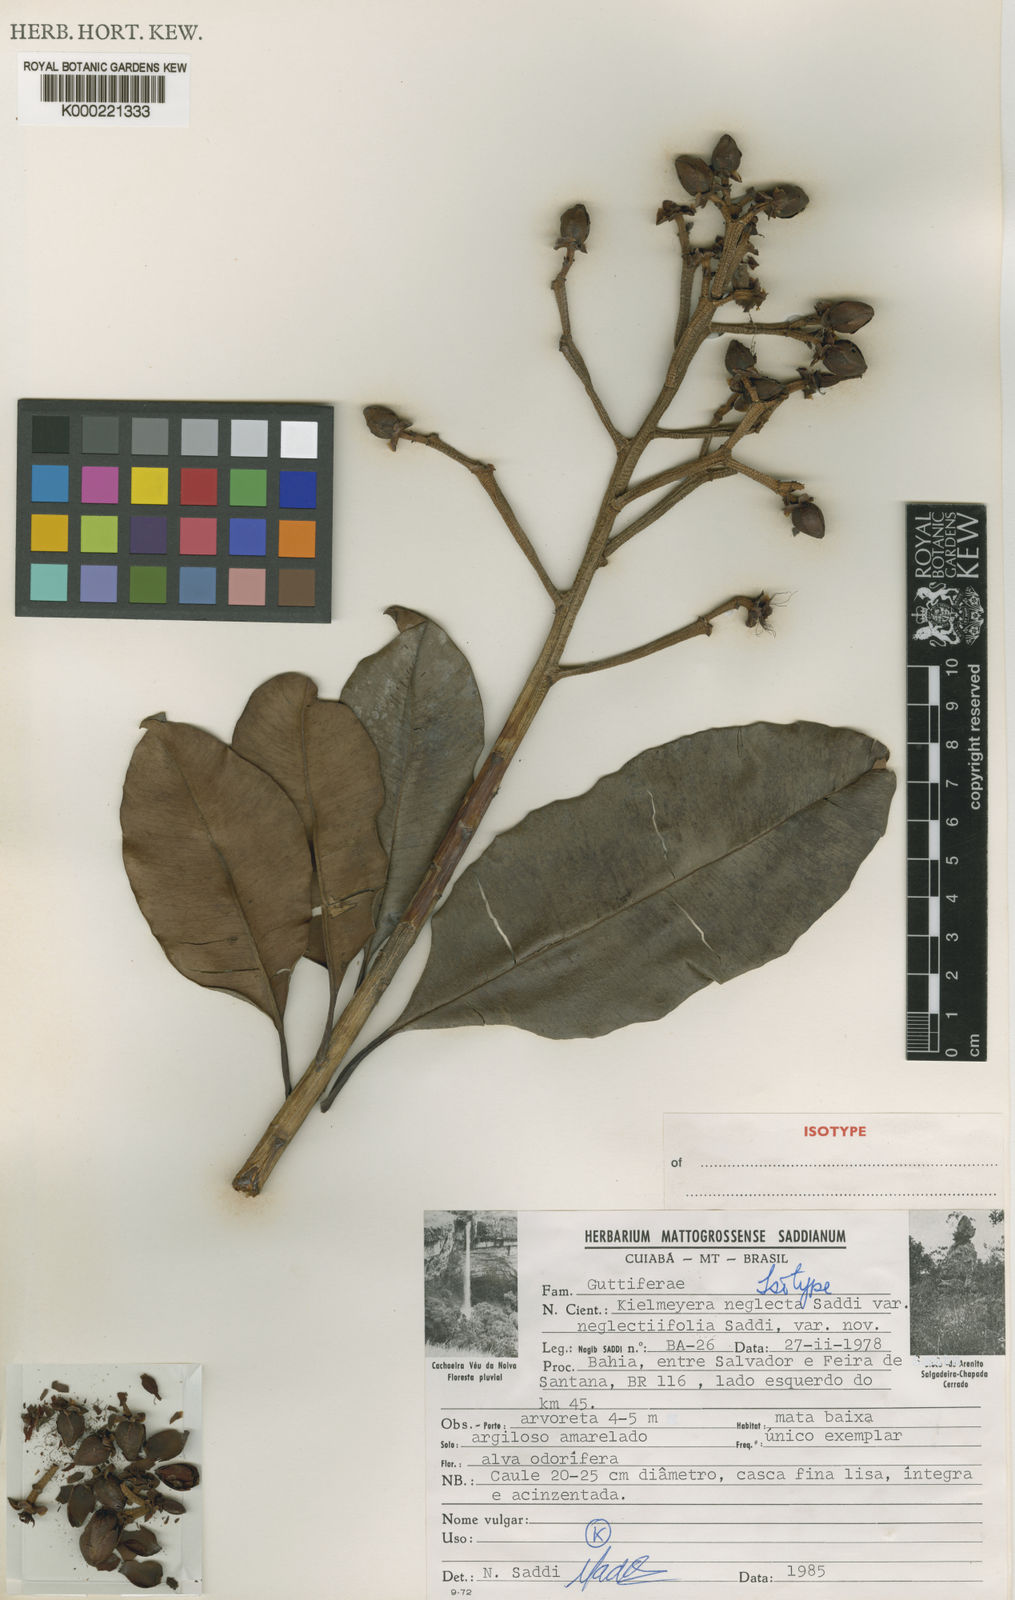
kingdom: Plantae
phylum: Tracheophyta
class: Magnoliopsida
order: Malpighiales
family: Calophyllaceae
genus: Kielmeyera
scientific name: Kielmeyera neglecta
